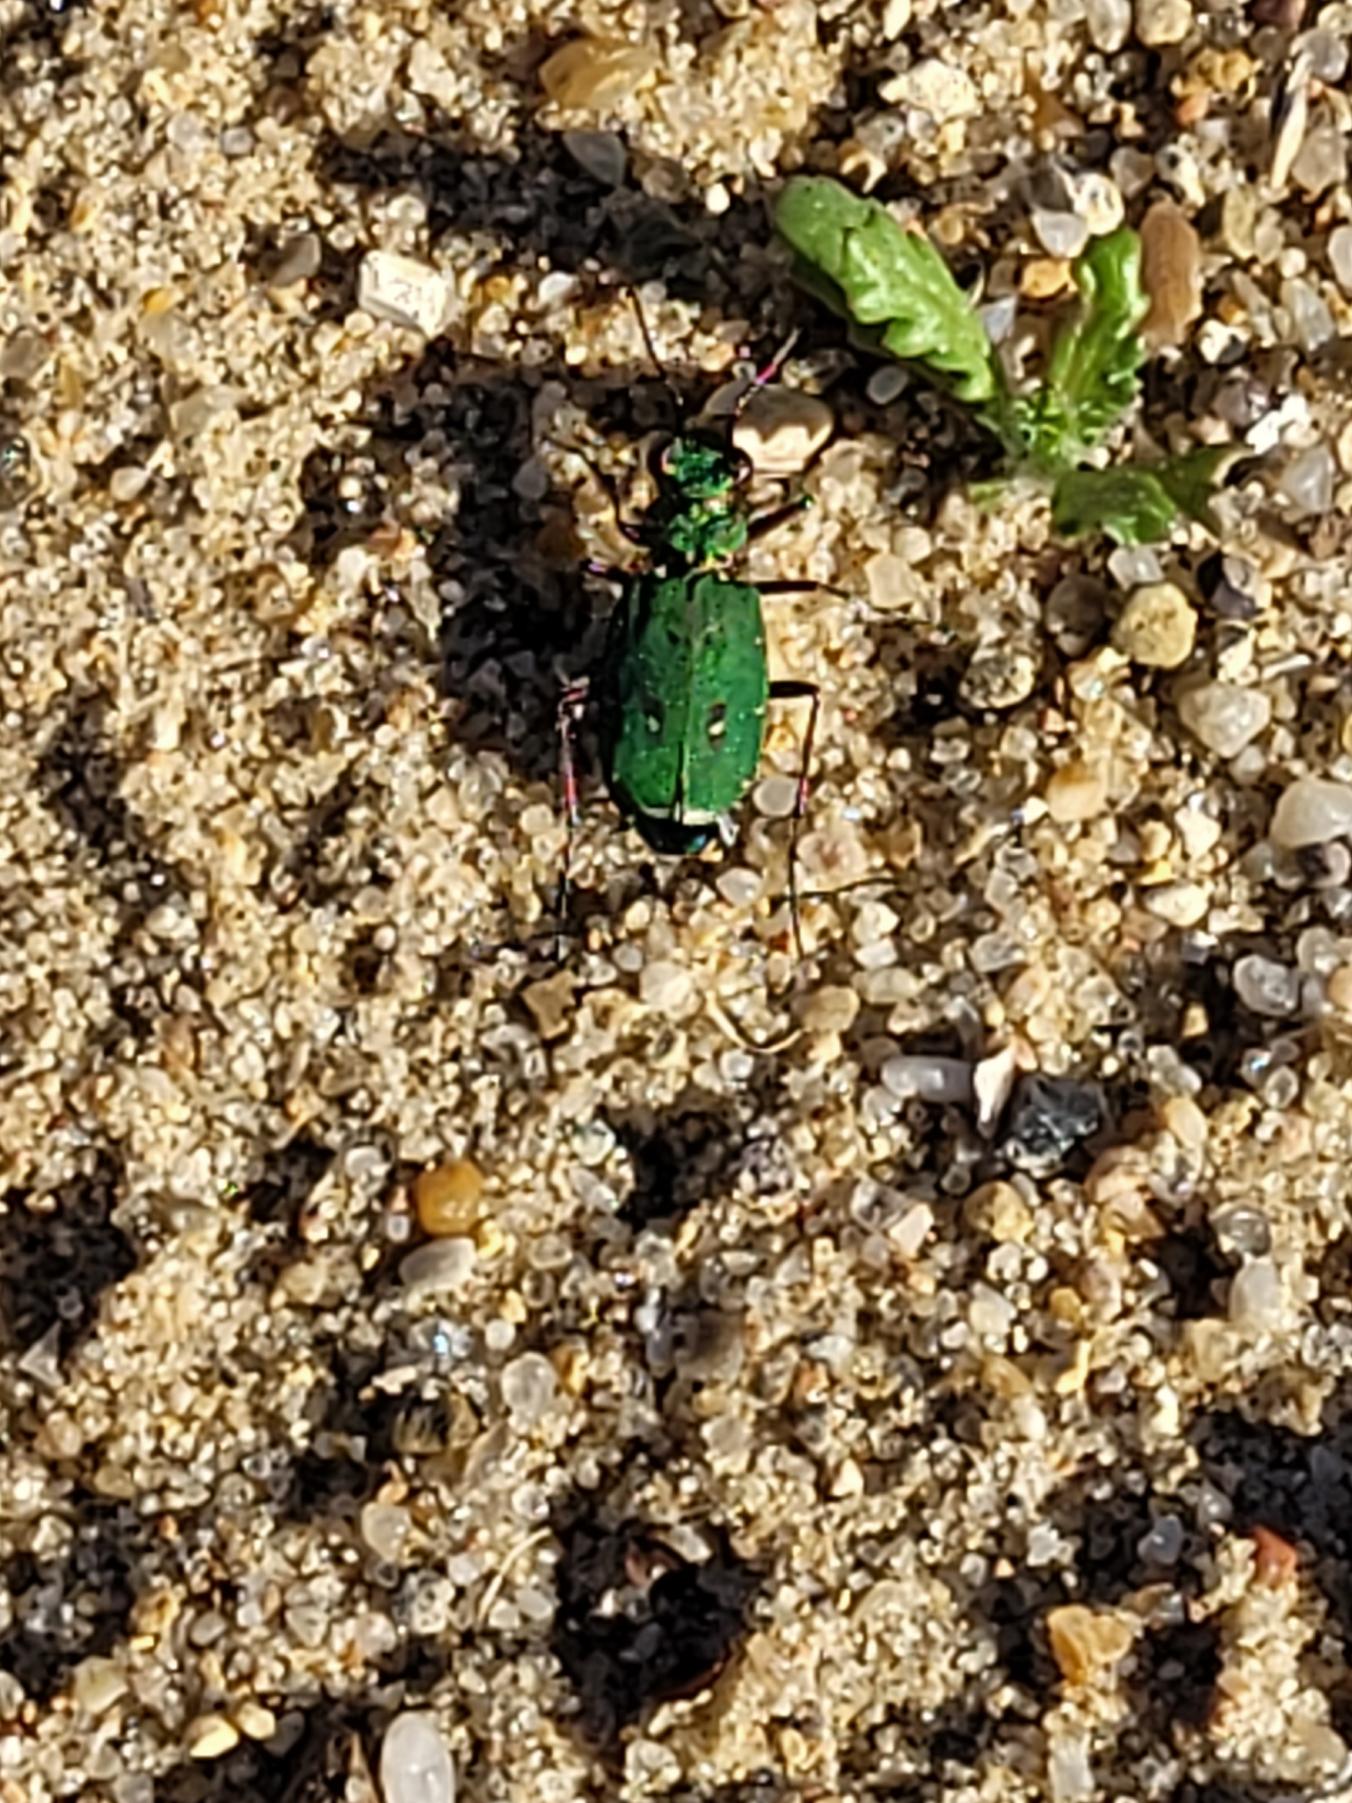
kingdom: Animalia
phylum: Arthropoda
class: Insecta
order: Coleoptera
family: Carabidae
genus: Cicindela
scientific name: Cicindela campestris
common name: Grøn sandspringer
